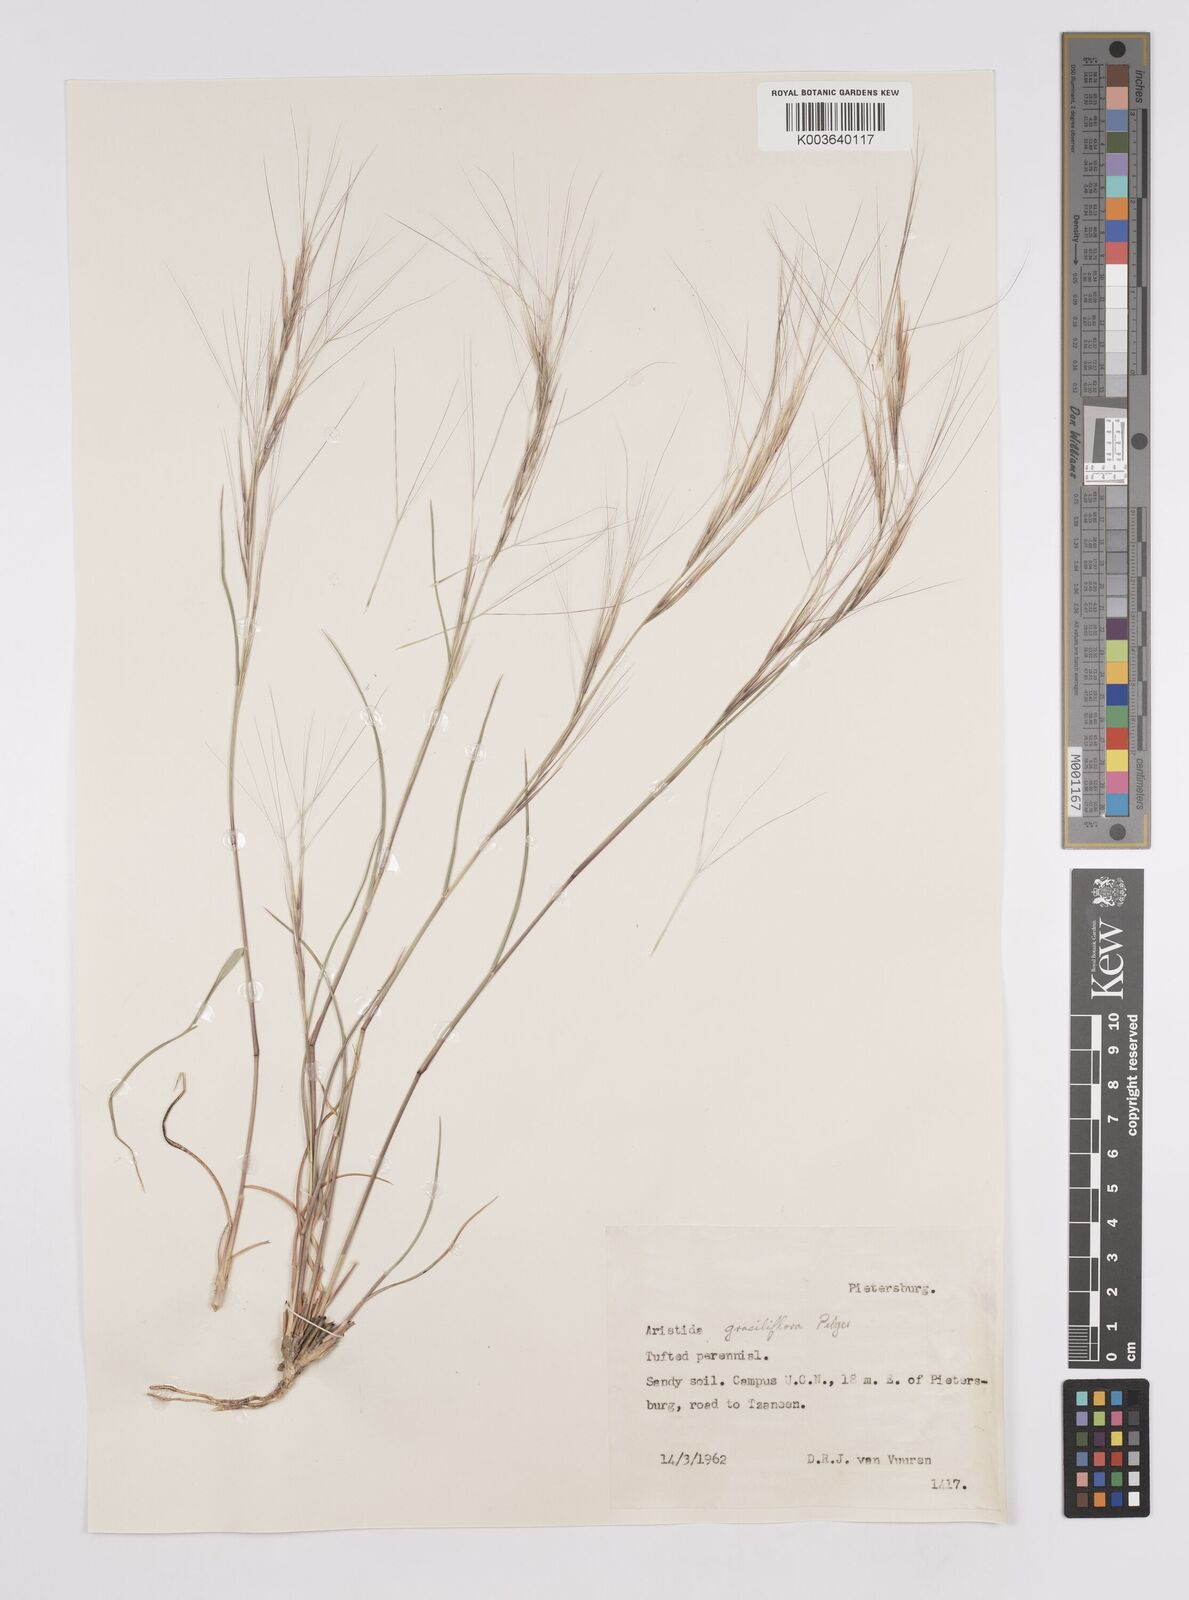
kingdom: Plantae
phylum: Tracheophyta
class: Liliopsida
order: Poales
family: Poaceae
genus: Aristida
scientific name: Aristida stipitata
